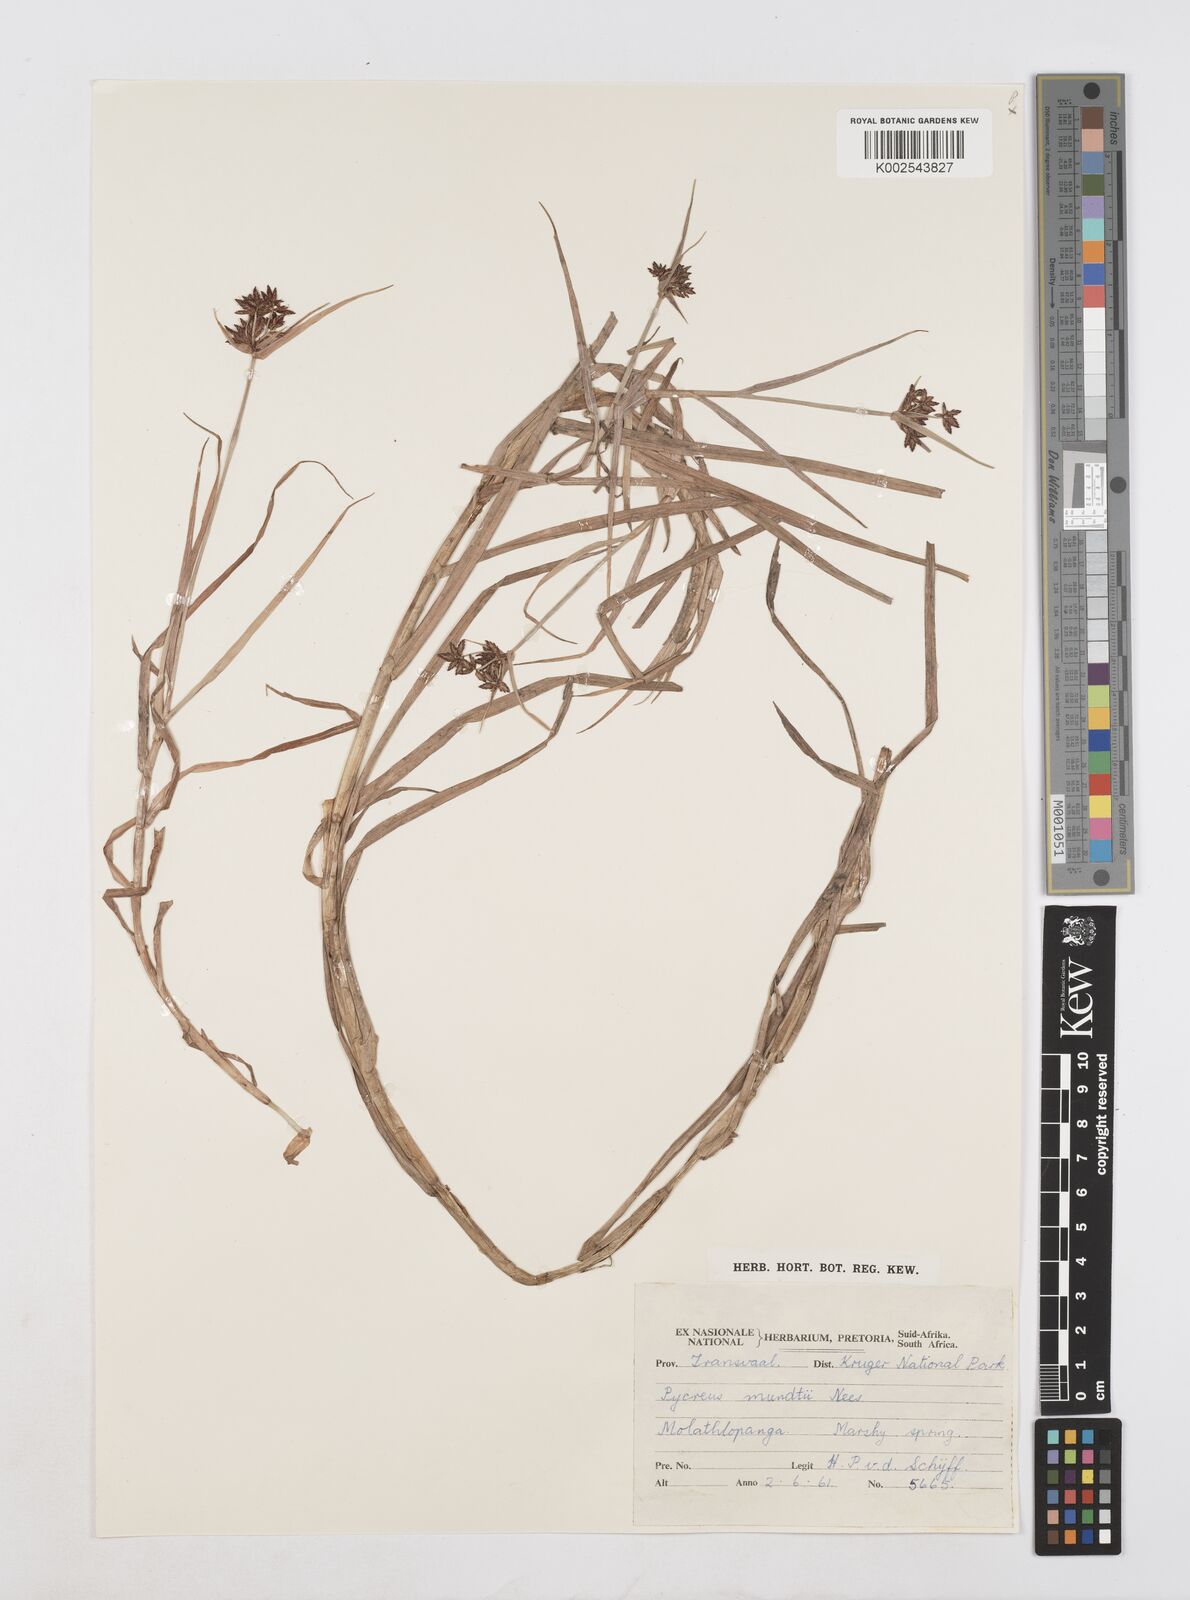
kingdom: Plantae
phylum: Tracheophyta
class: Liliopsida
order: Poales
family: Cyperaceae
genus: Cyperus
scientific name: Cyperus mundii
